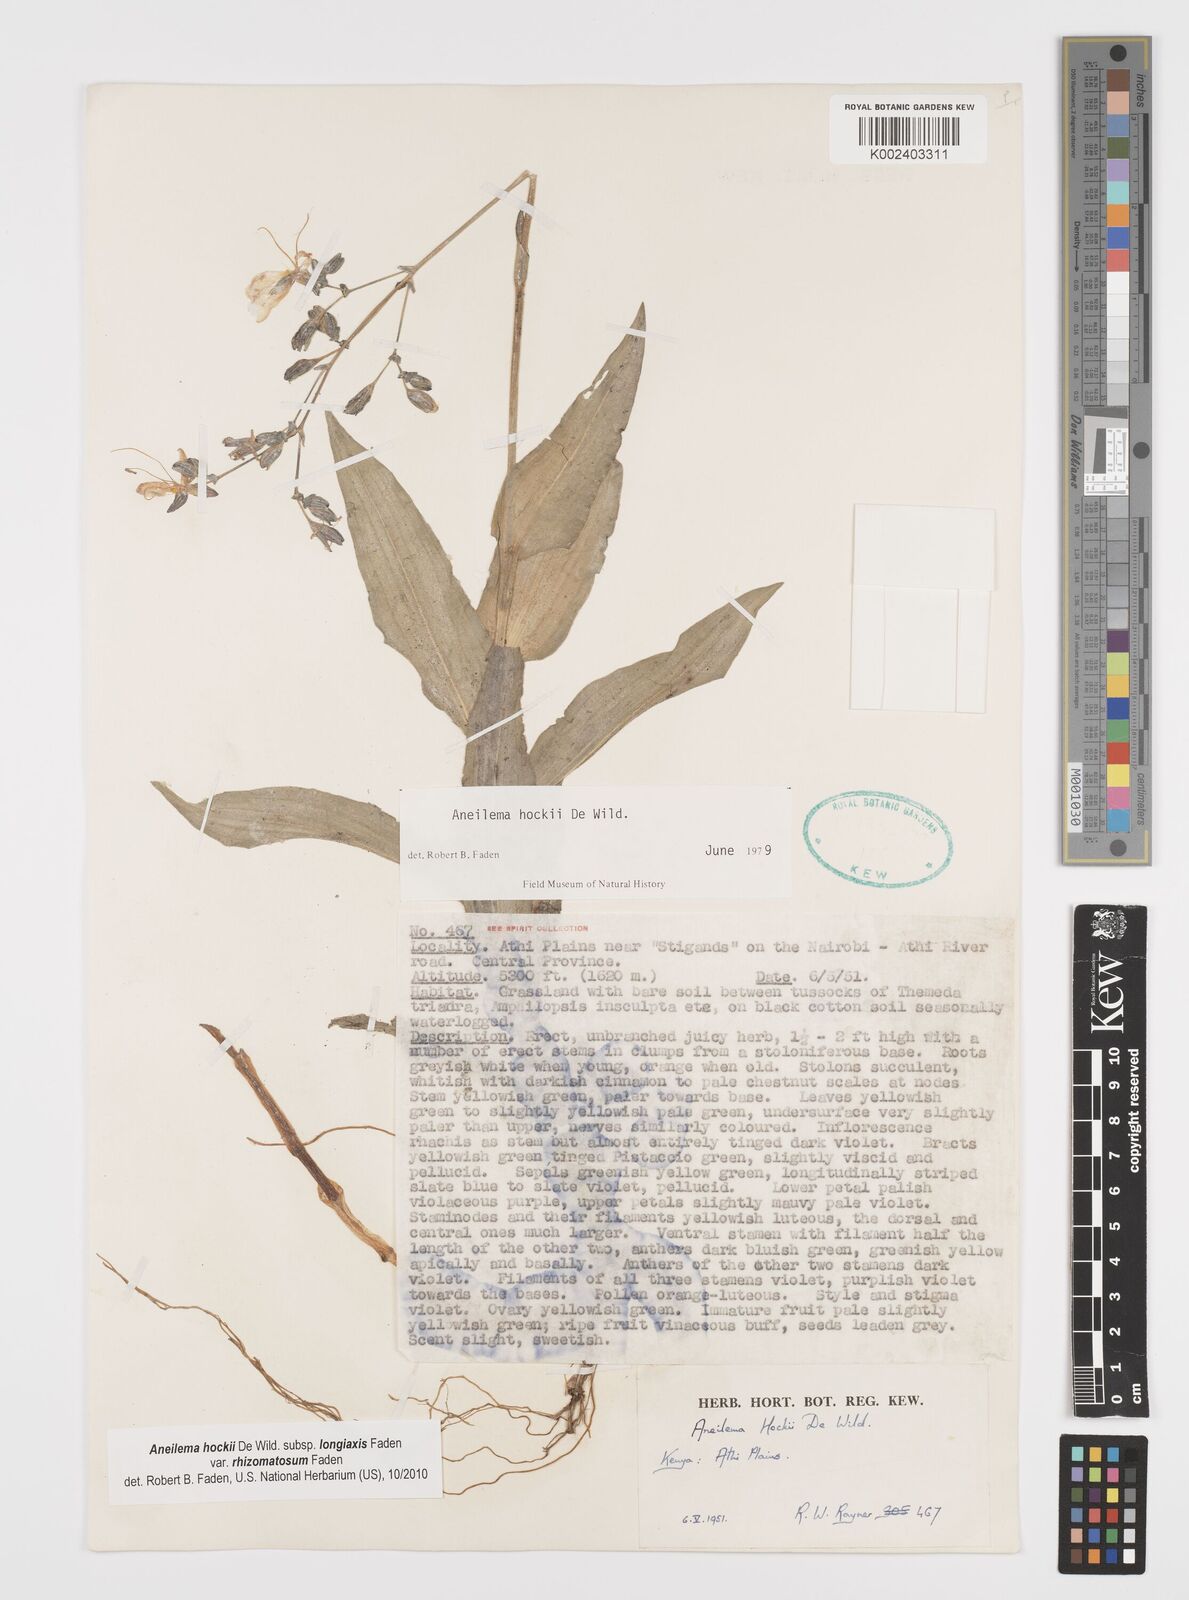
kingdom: Plantae
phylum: Tracheophyta
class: Liliopsida
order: Commelinales
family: Commelinaceae
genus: Aneilema
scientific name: Aneilema hockii
